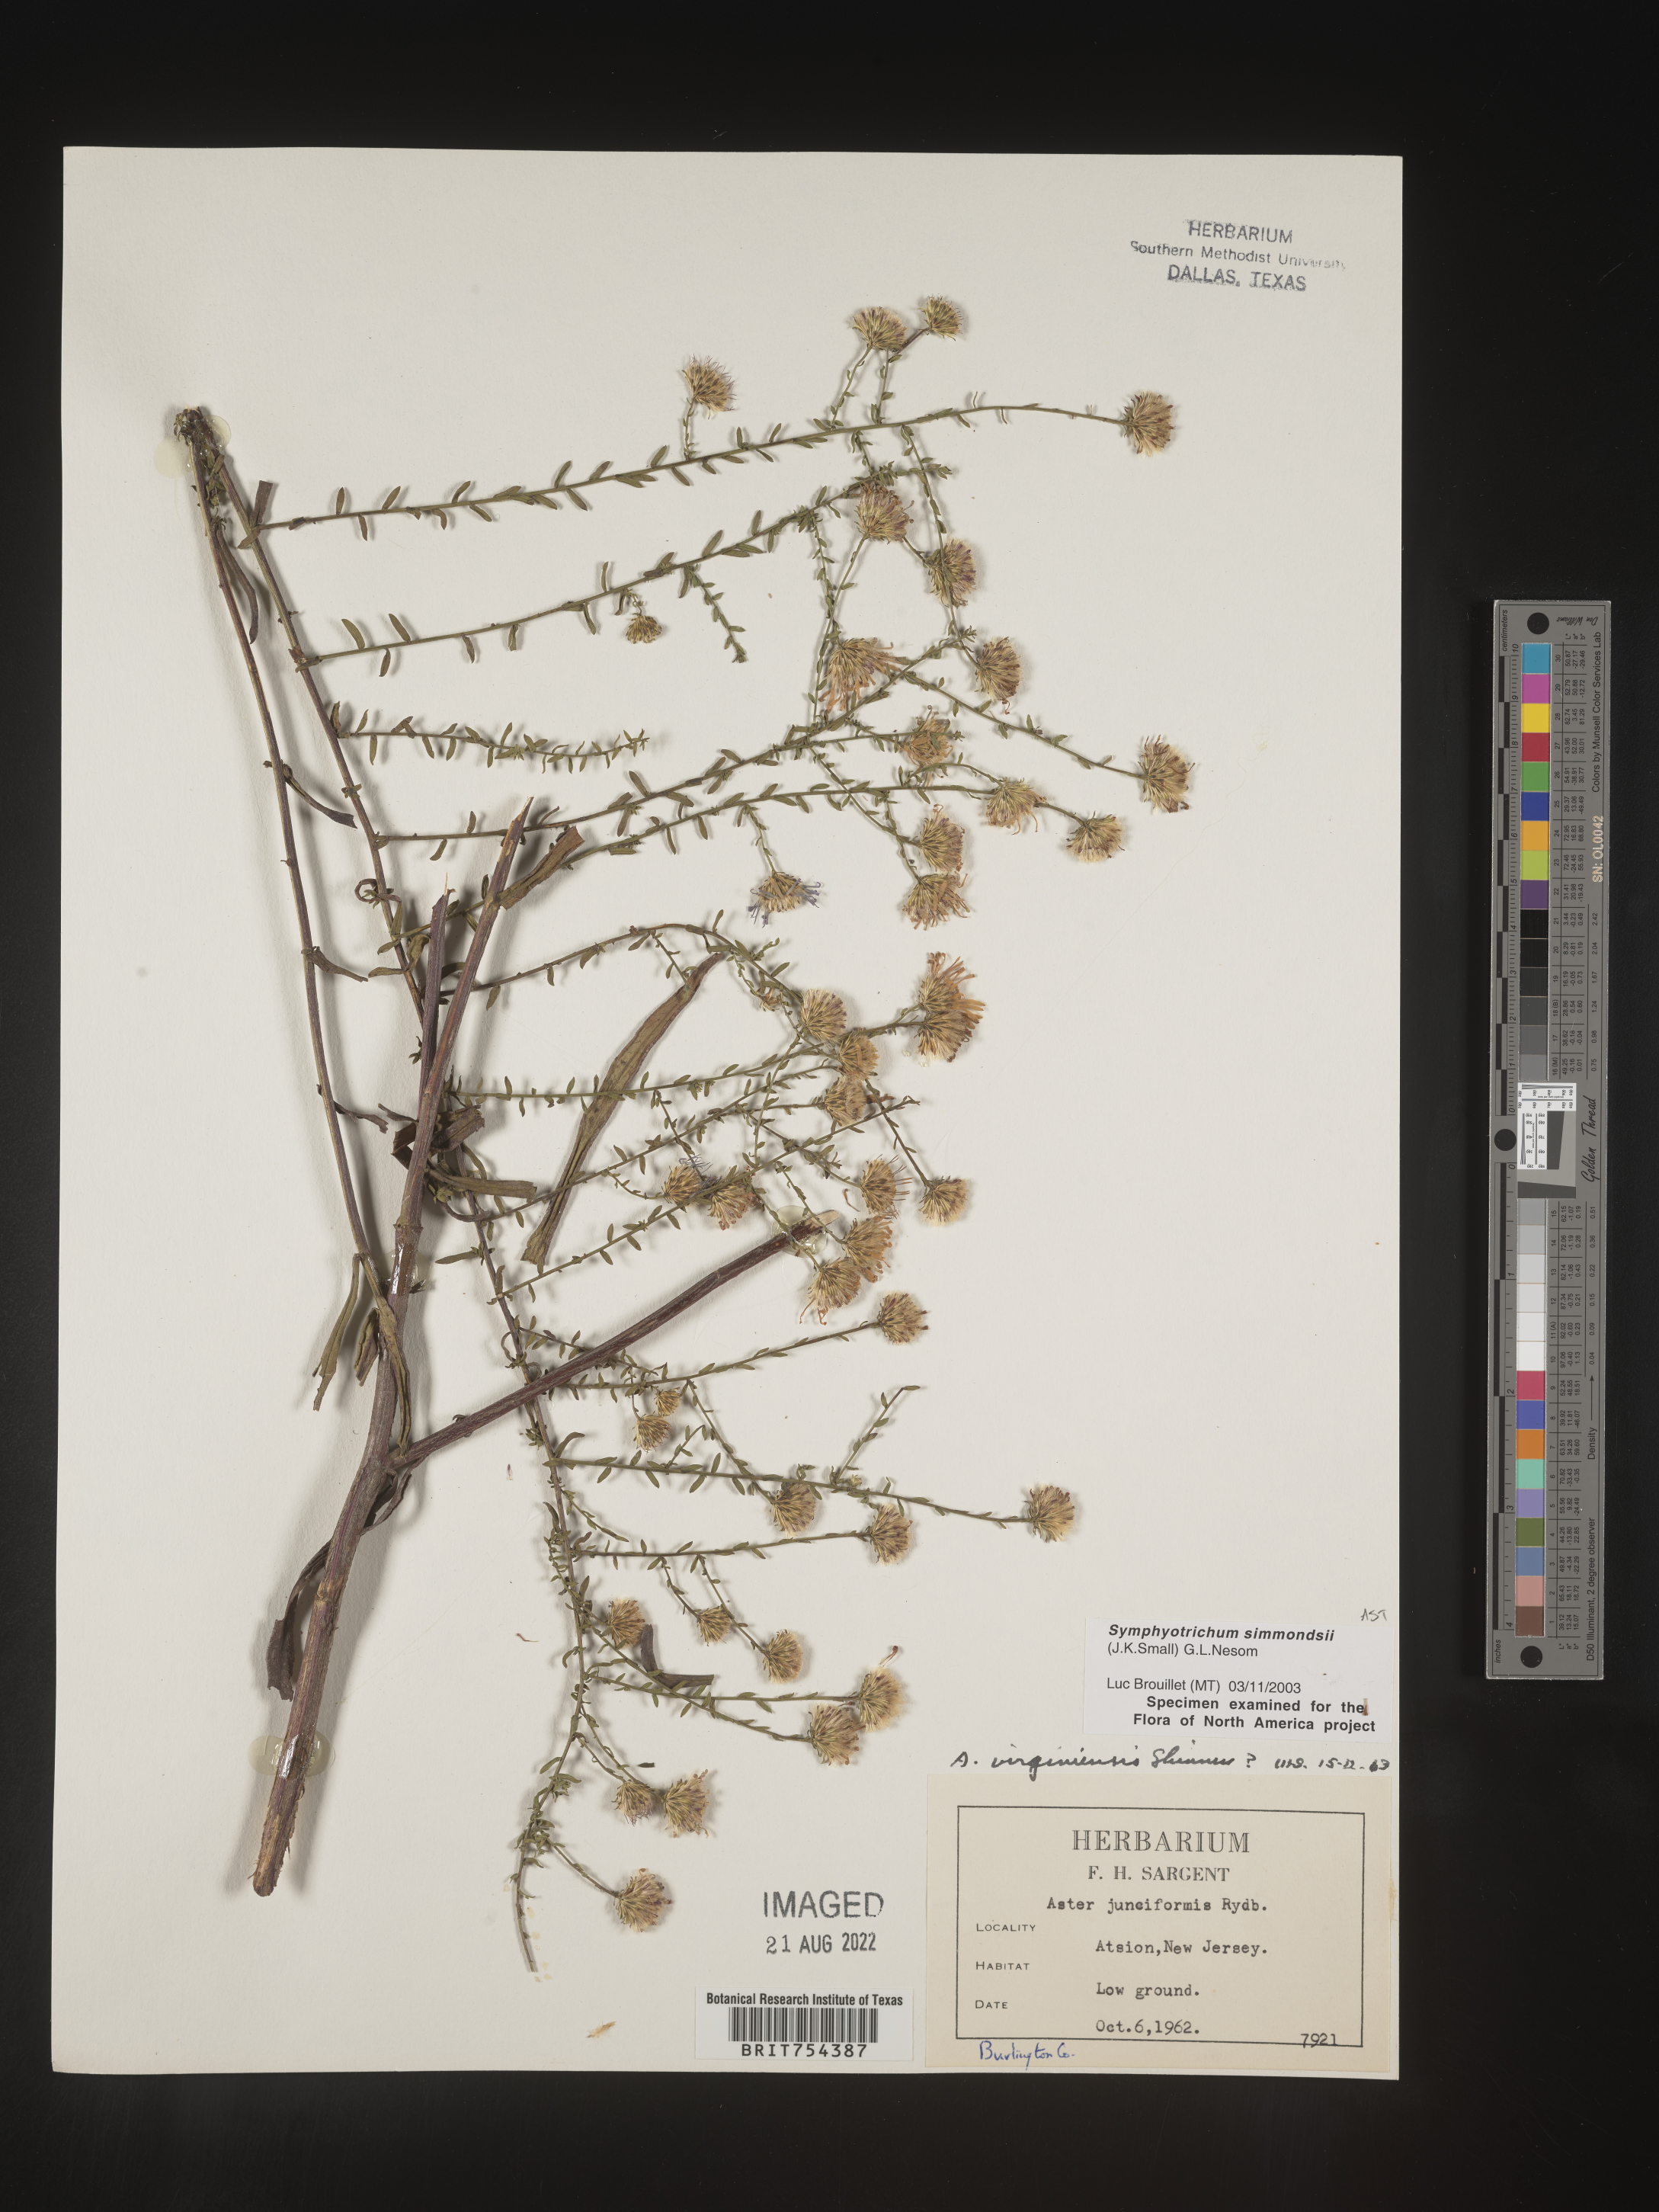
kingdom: Plantae
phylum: Tracheophyta
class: Magnoliopsida
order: Asterales
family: Asteraceae
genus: Symphyotrichum
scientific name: Symphyotrichum simmondsii
